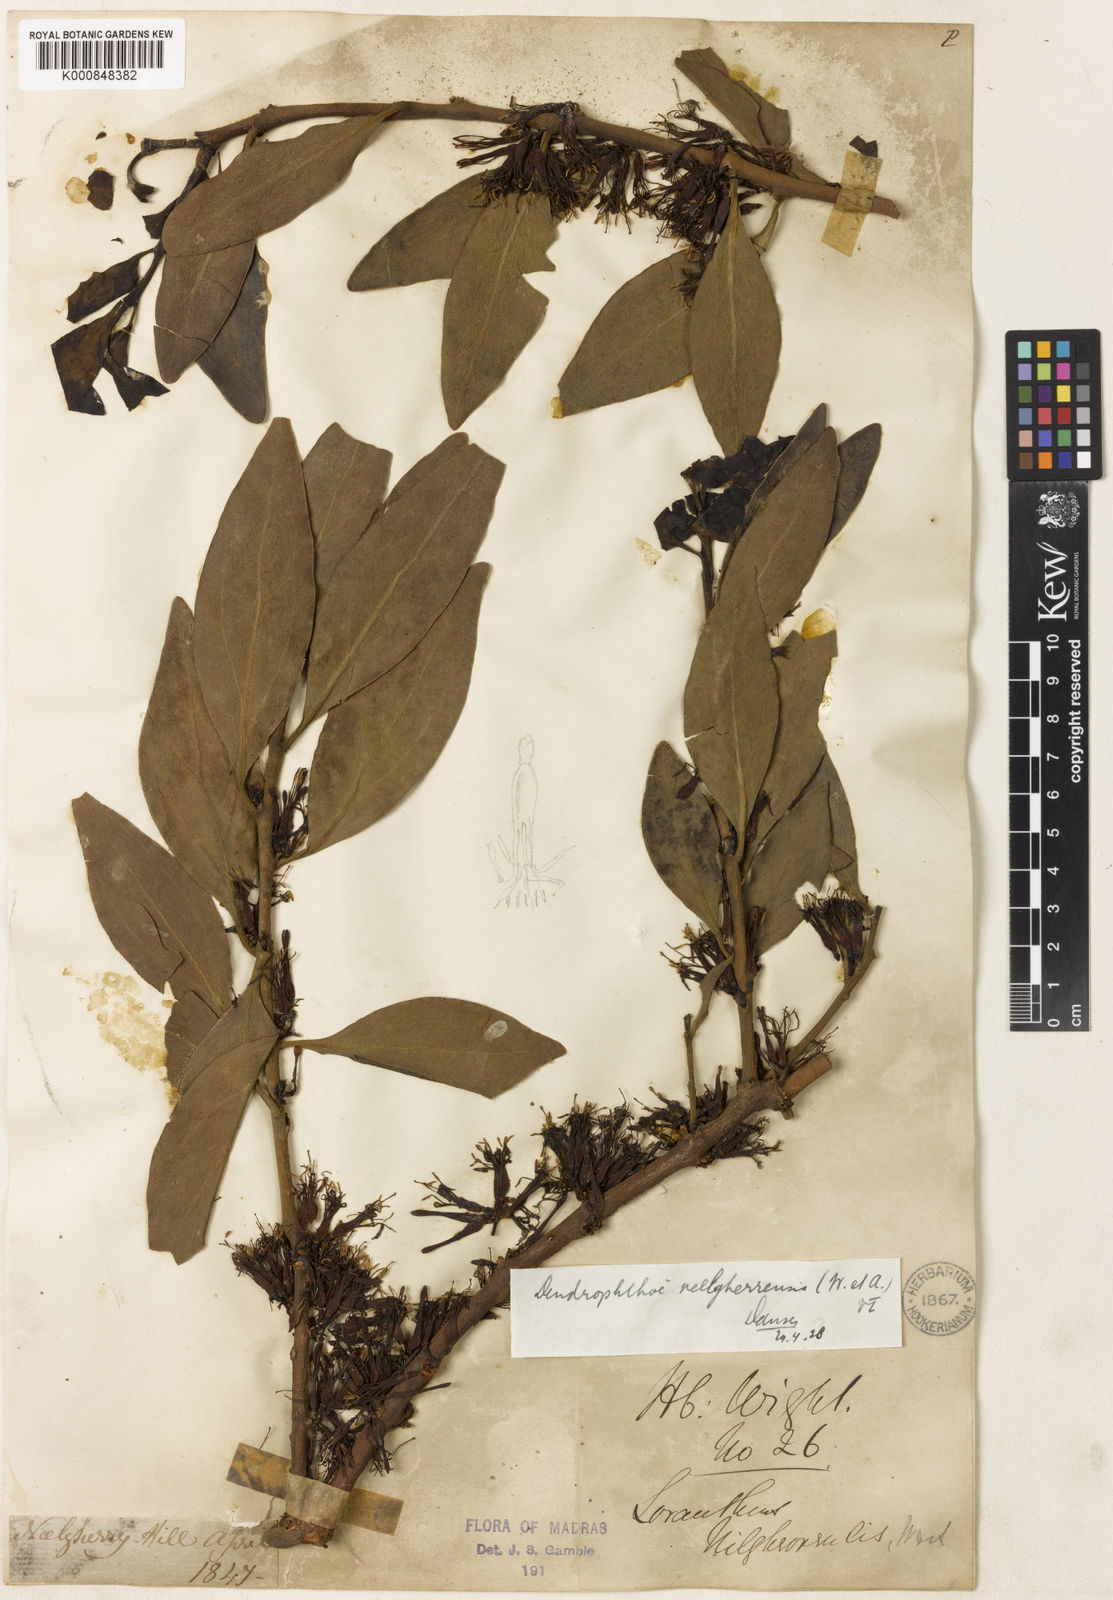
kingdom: Plantae
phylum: Tracheophyta
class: Magnoliopsida
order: Santalales
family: Loranthaceae
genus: Dendrophthoe
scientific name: Dendrophthoe neelgherrensis
